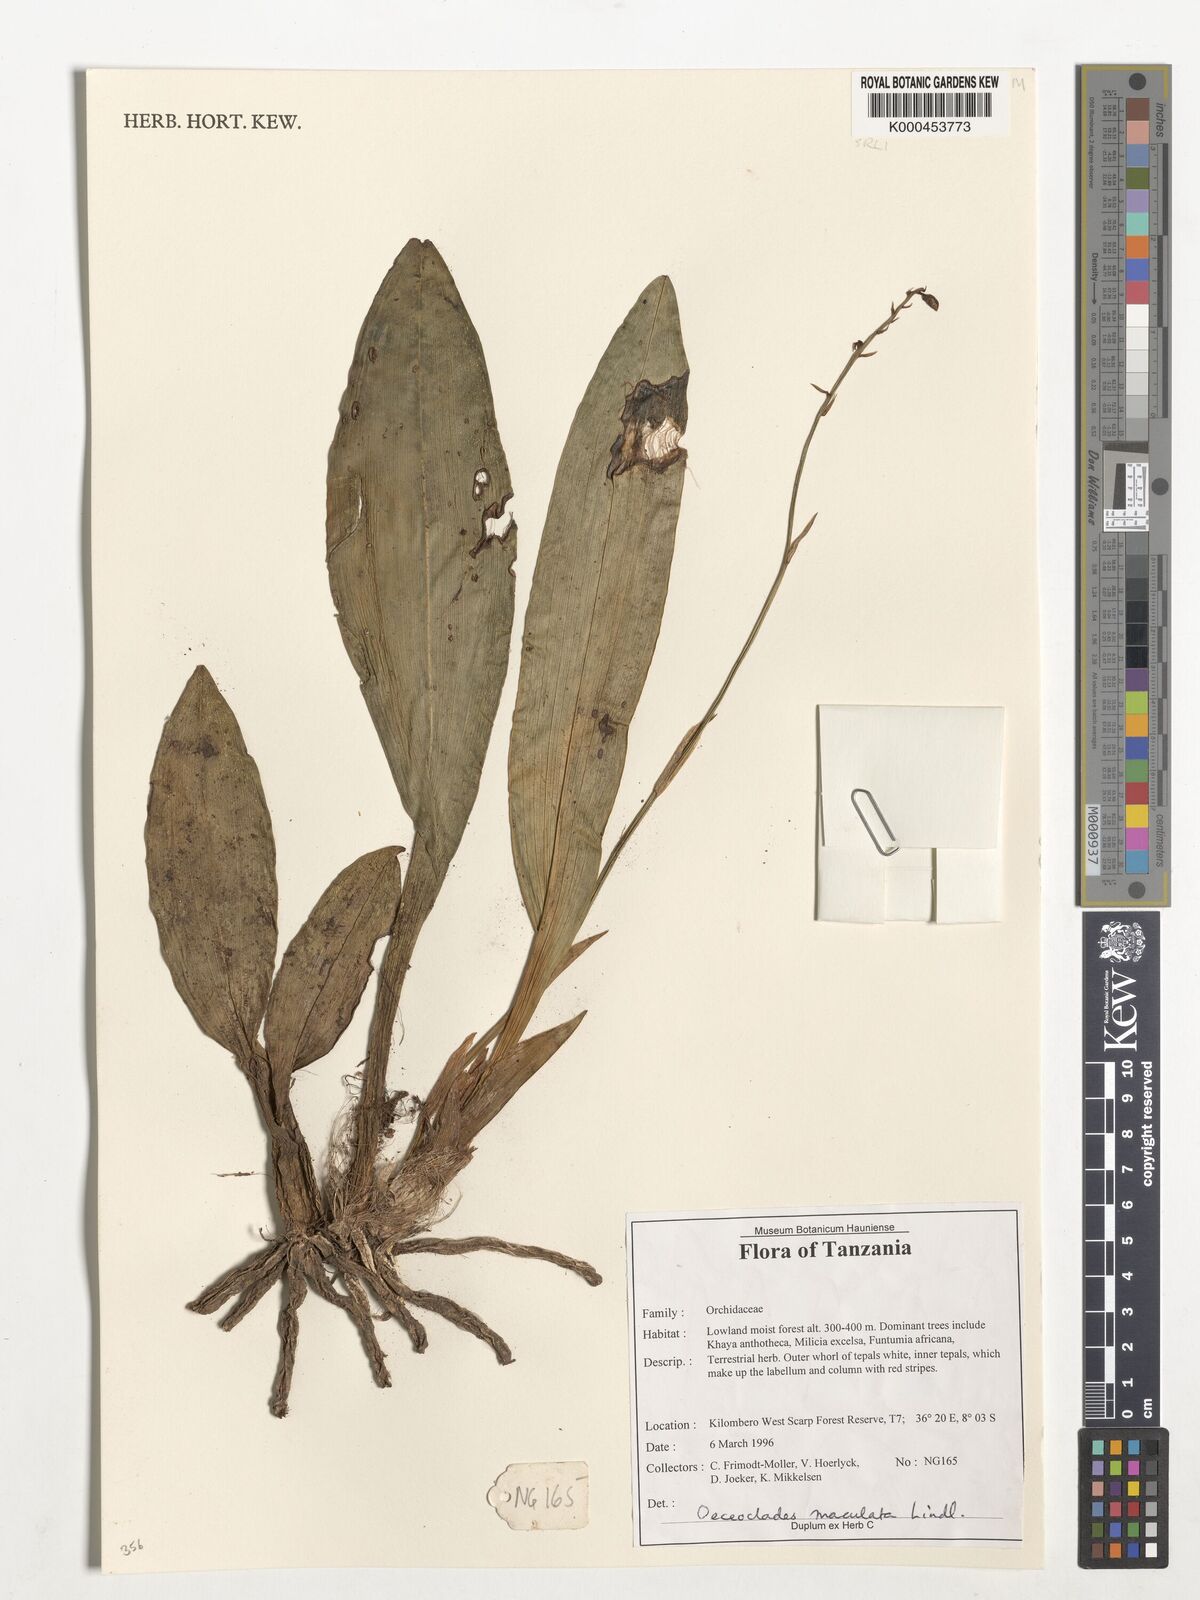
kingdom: Plantae
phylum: Tracheophyta
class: Liliopsida
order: Asparagales
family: Orchidaceae
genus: Eulophia
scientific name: Eulophia maculata
